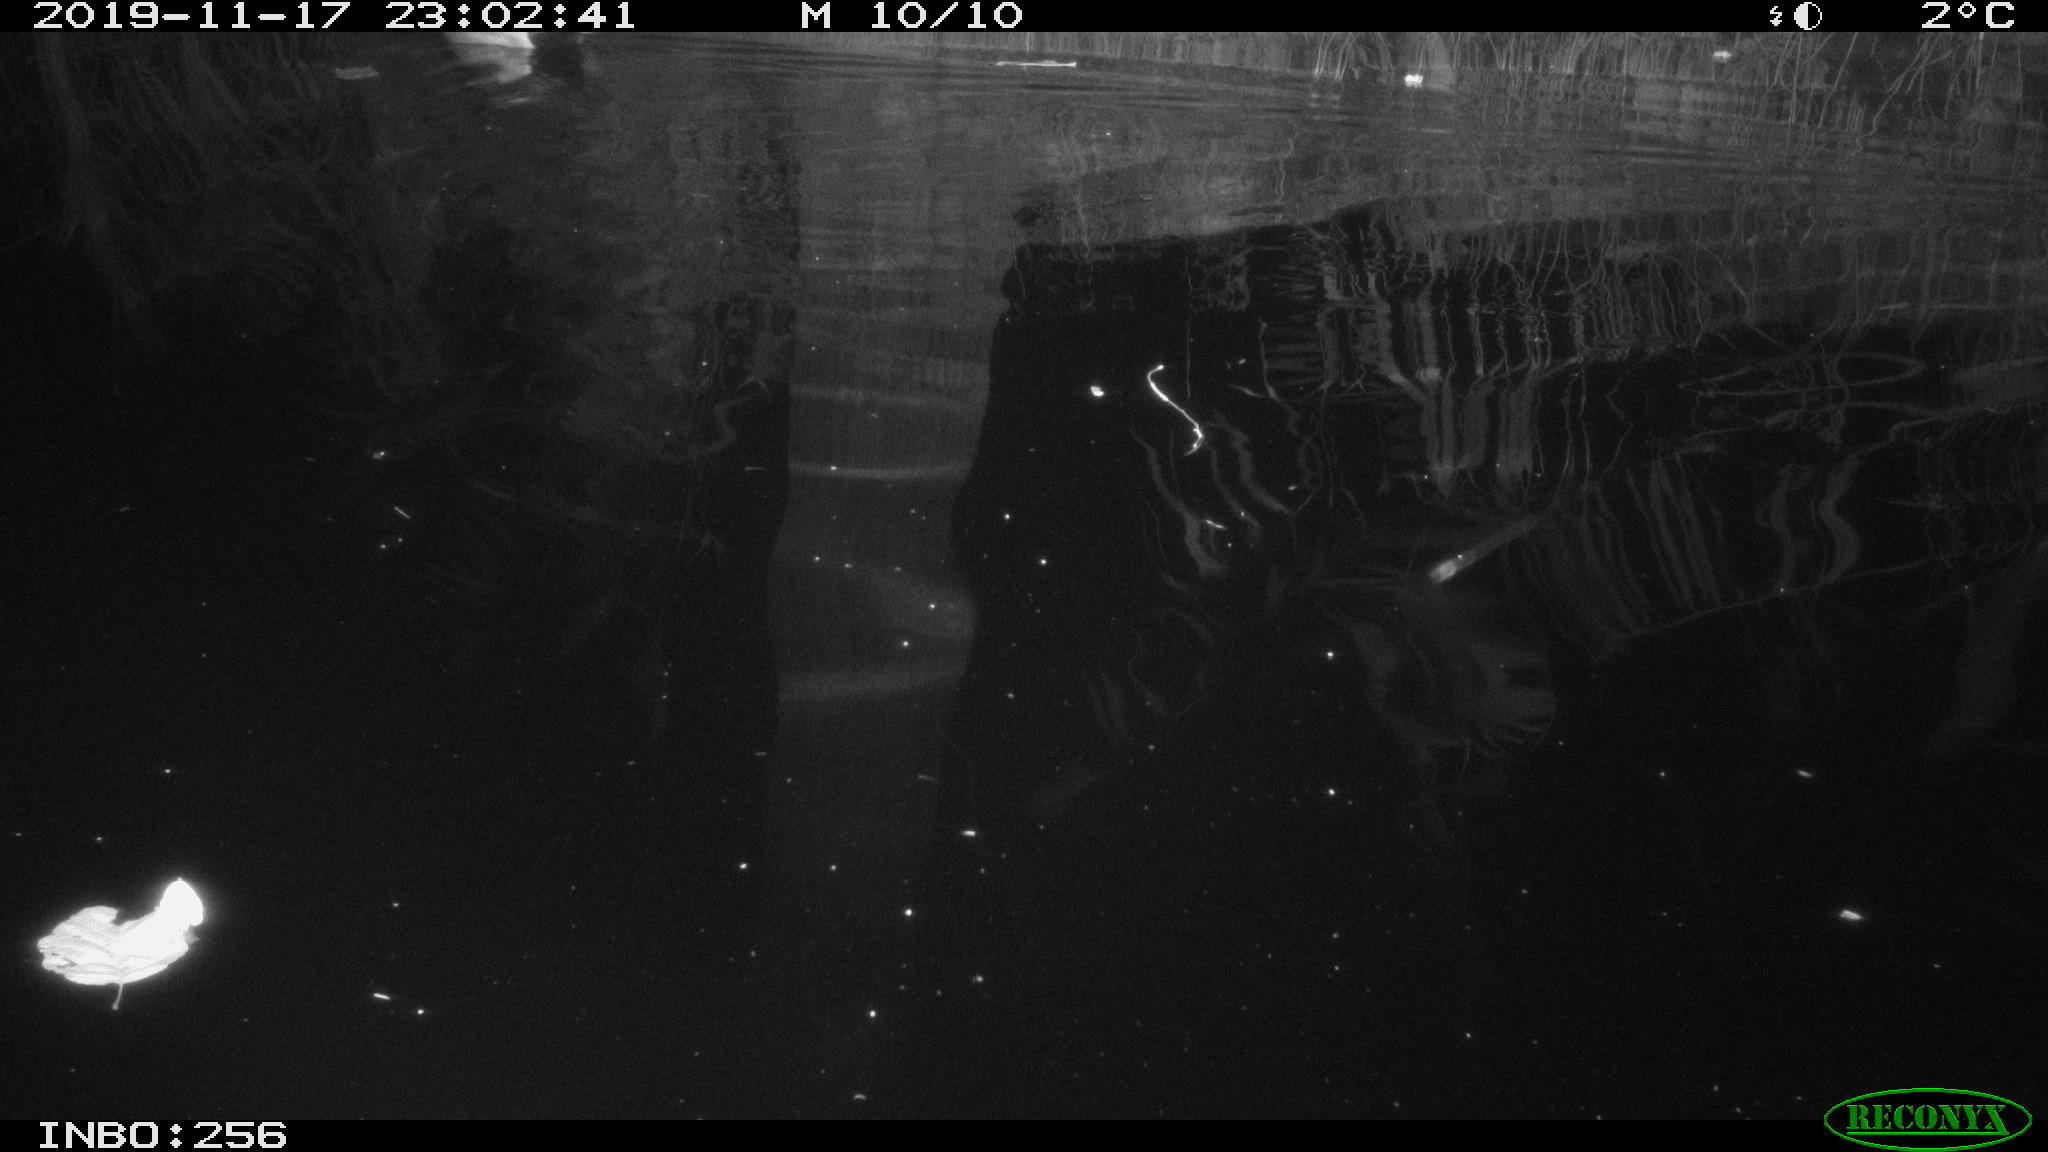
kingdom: Animalia
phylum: Chordata
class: Aves
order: Anseriformes
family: Anatidae
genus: Anas
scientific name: Anas platyrhynchos
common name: Mallard
